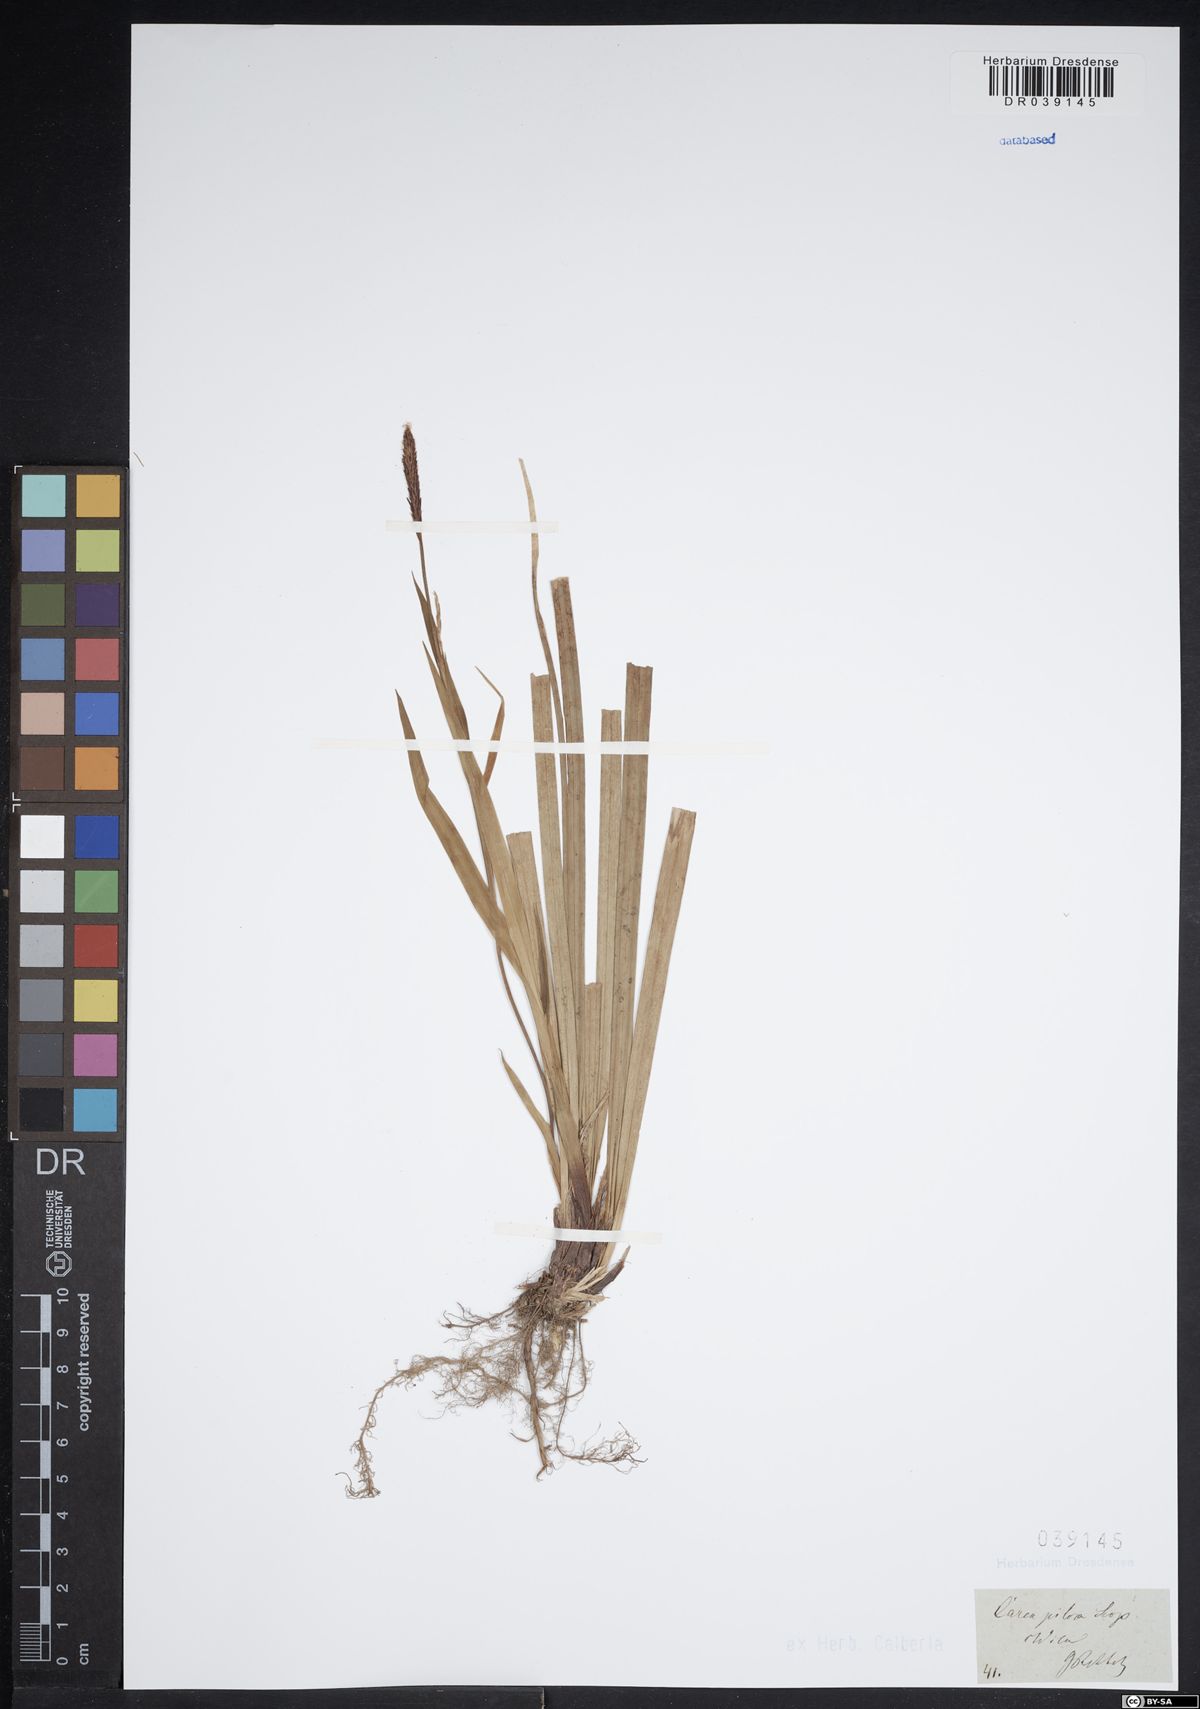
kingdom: Plantae
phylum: Tracheophyta
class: Liliopsida
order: Poales
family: Cyperaceae
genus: Carex
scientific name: Carex pilosa
